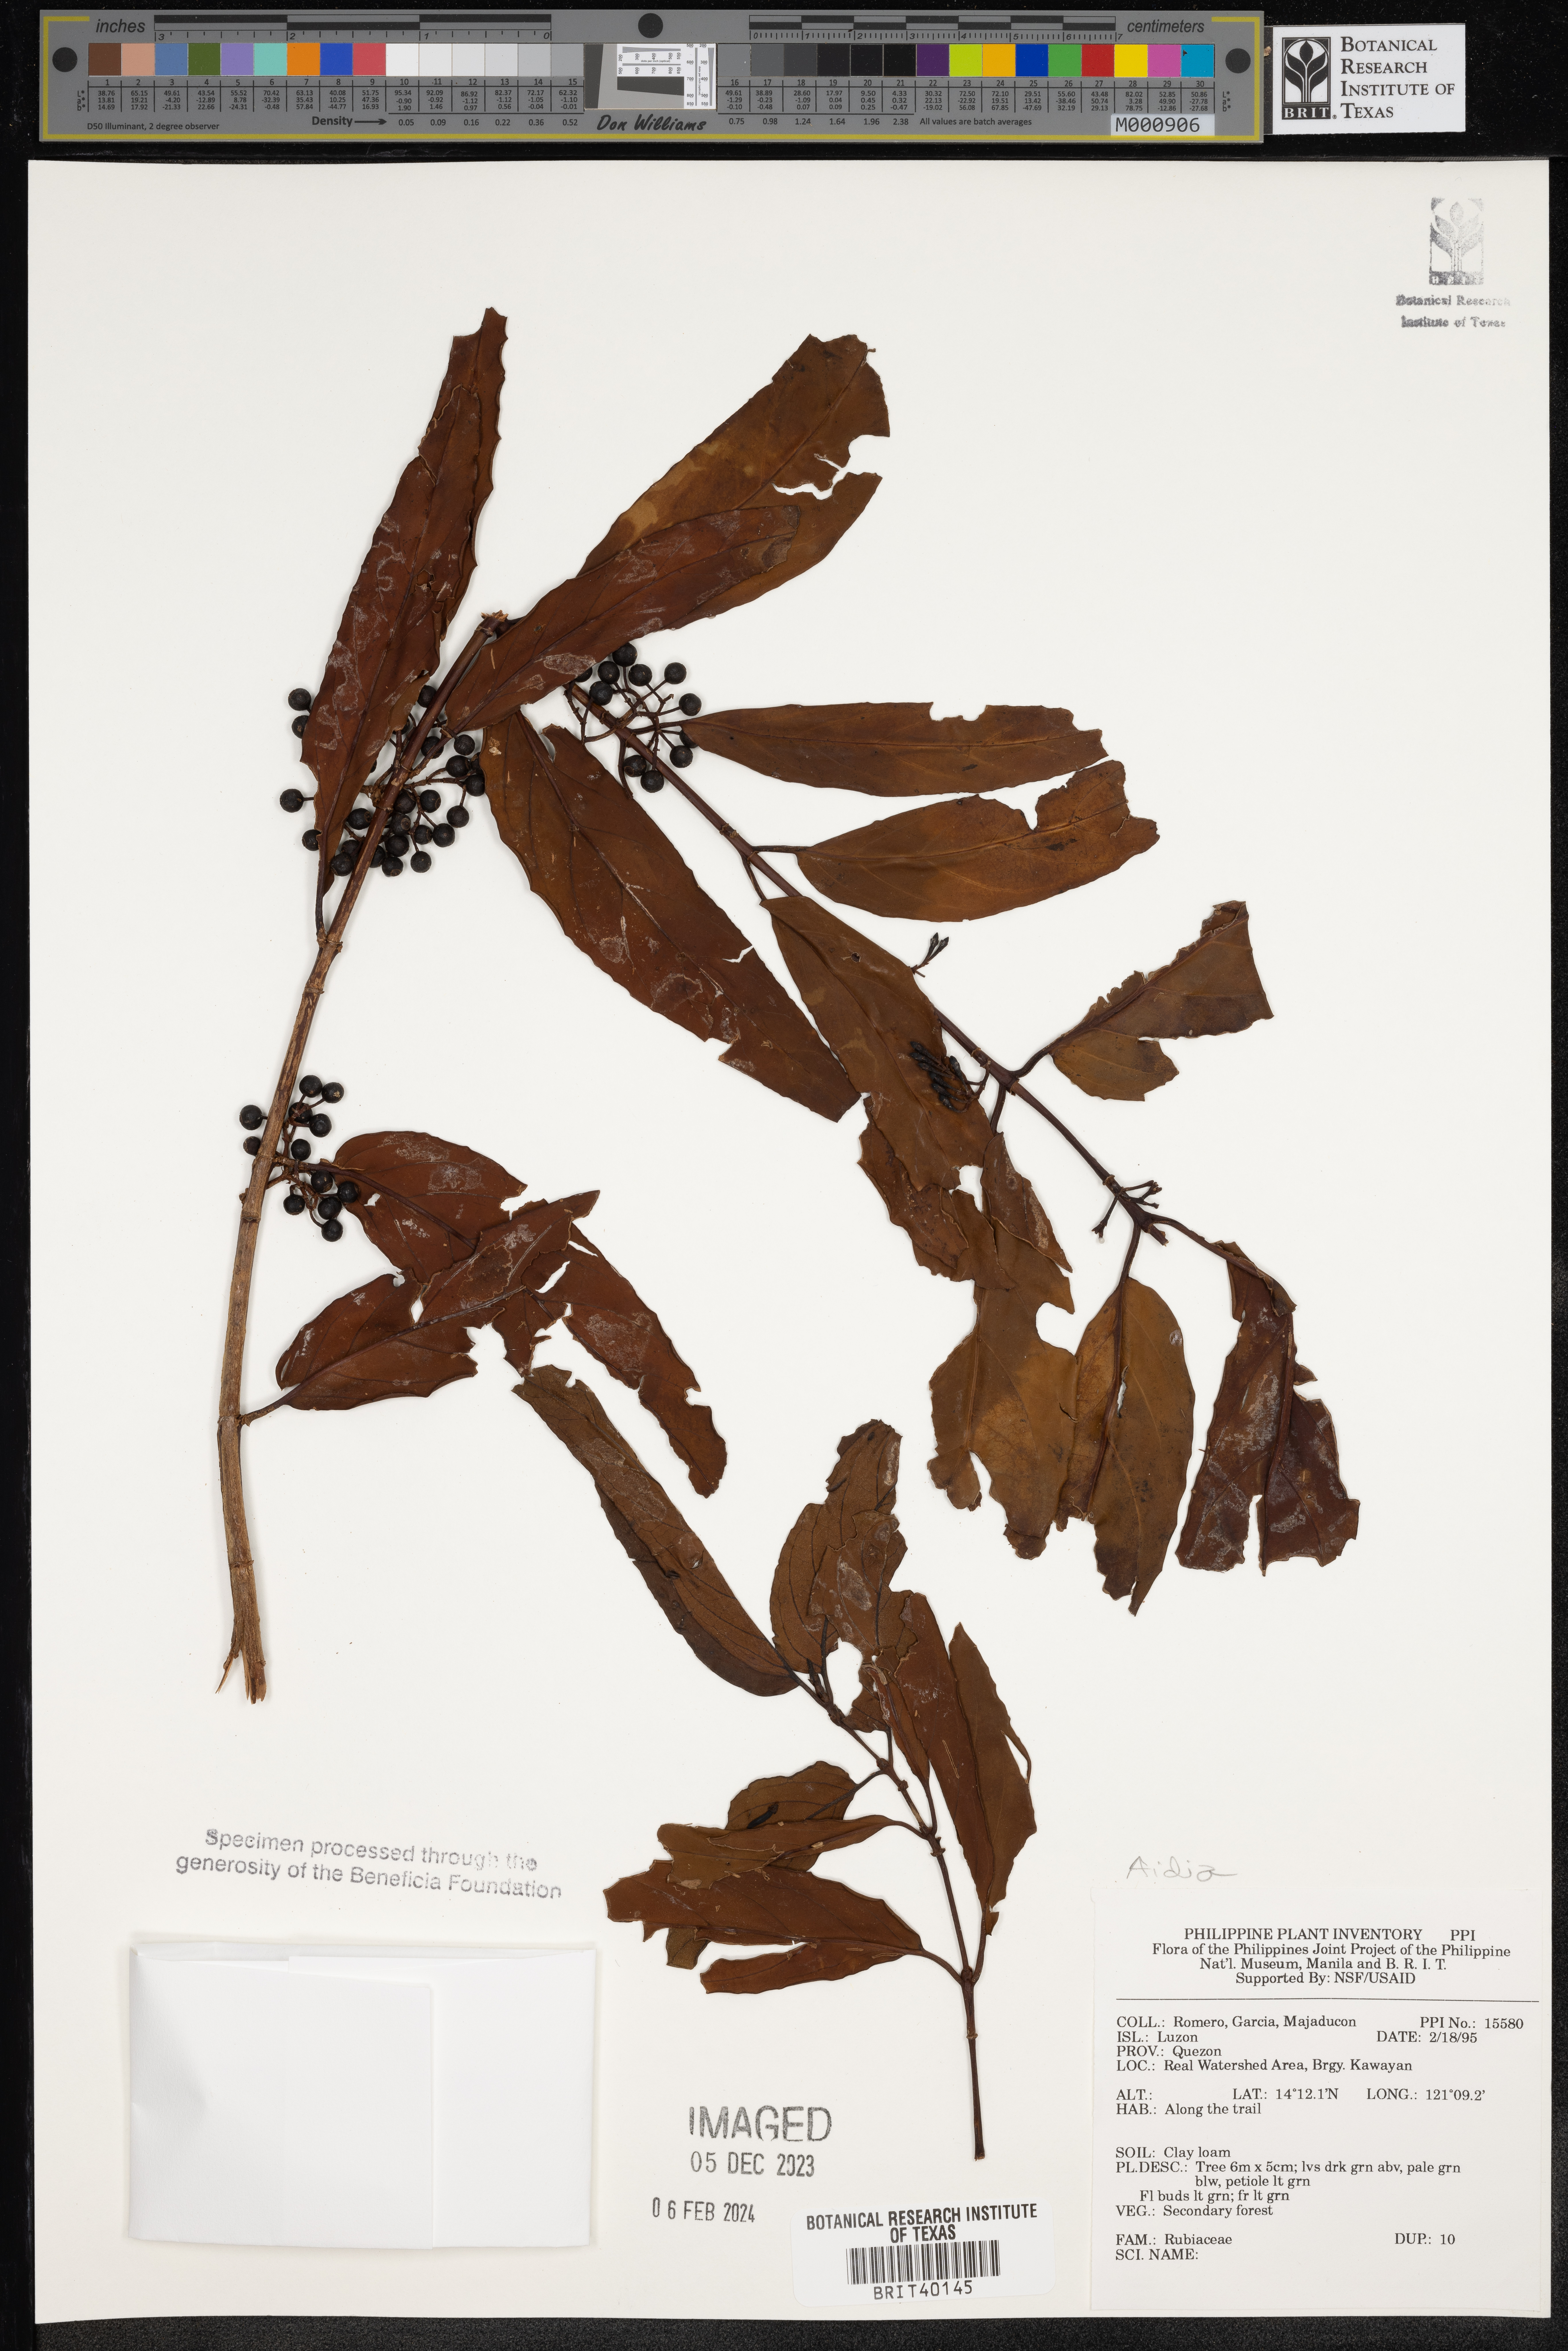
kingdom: Plantae
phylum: Tracheophyta
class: Magnoliopsida
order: Gentianales
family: Rubiaceae
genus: Aidia
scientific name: Aidia
